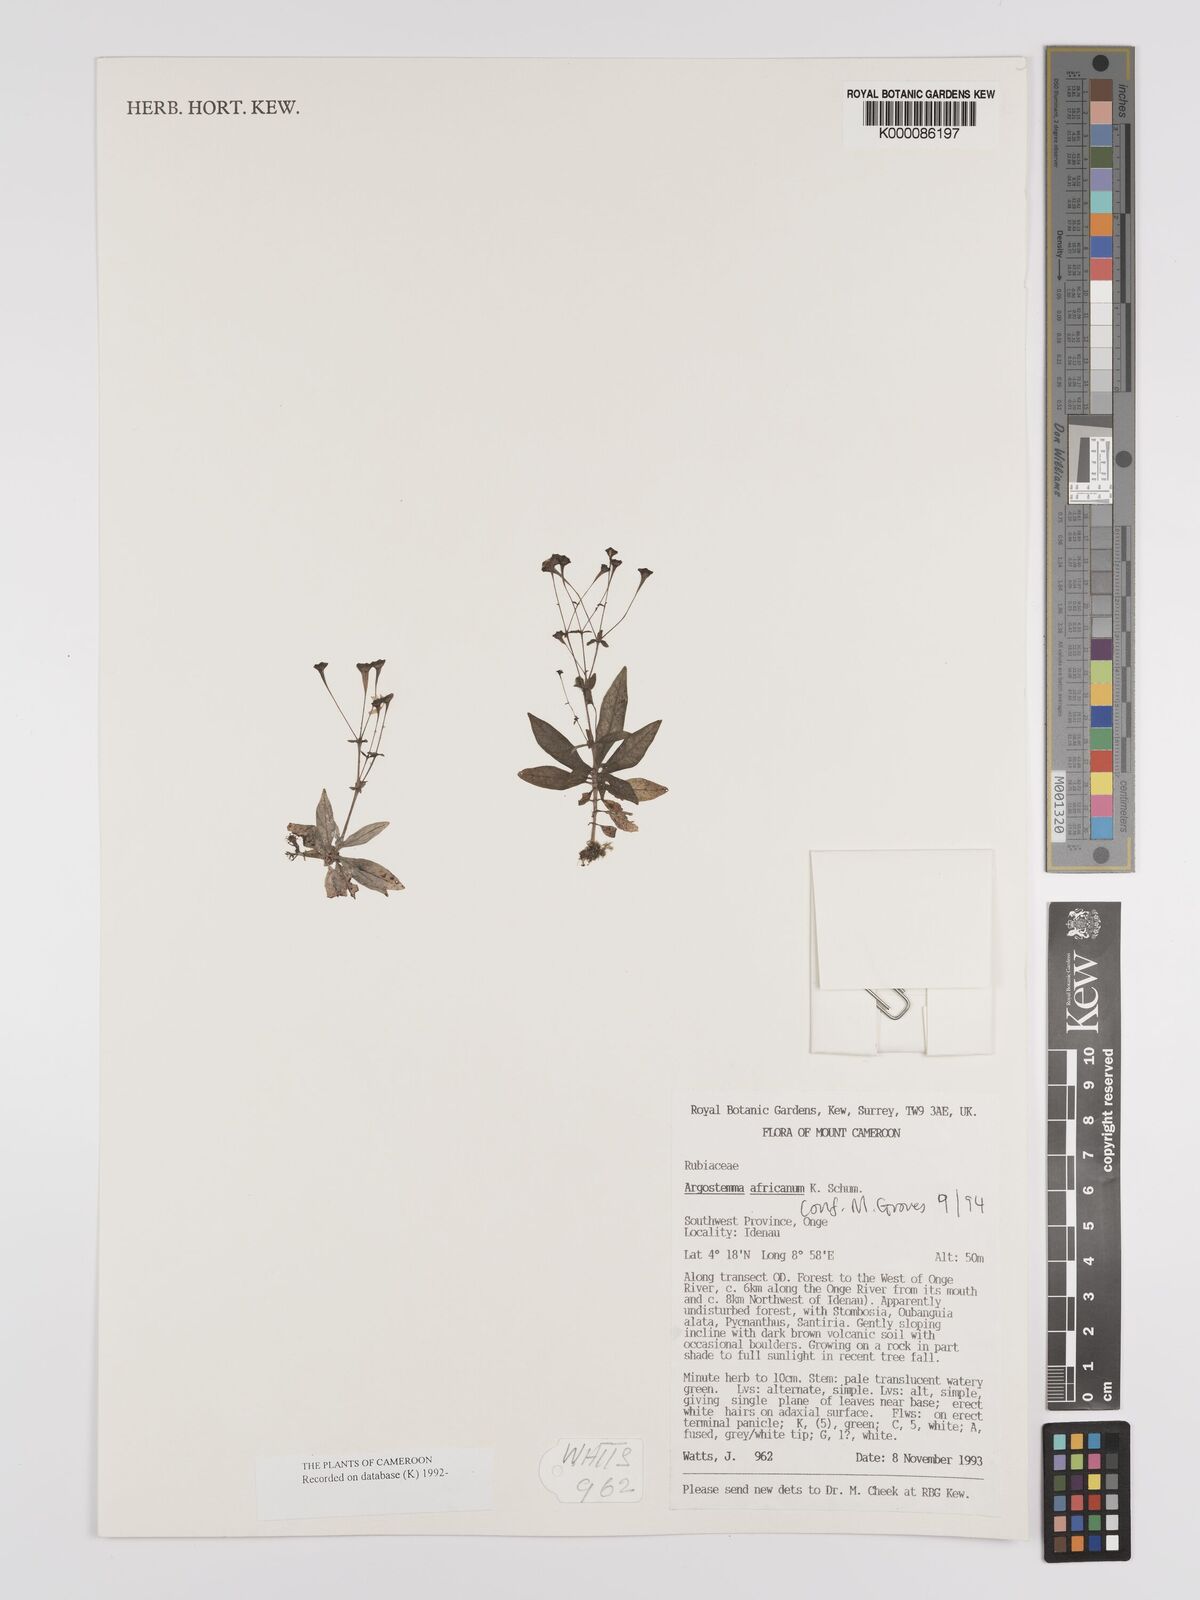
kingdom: Plantae
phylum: Tracheophyta
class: Magnoliopsida
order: Gentianales
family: Rubiaceae
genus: Argostemma
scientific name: Argostemma africanum
